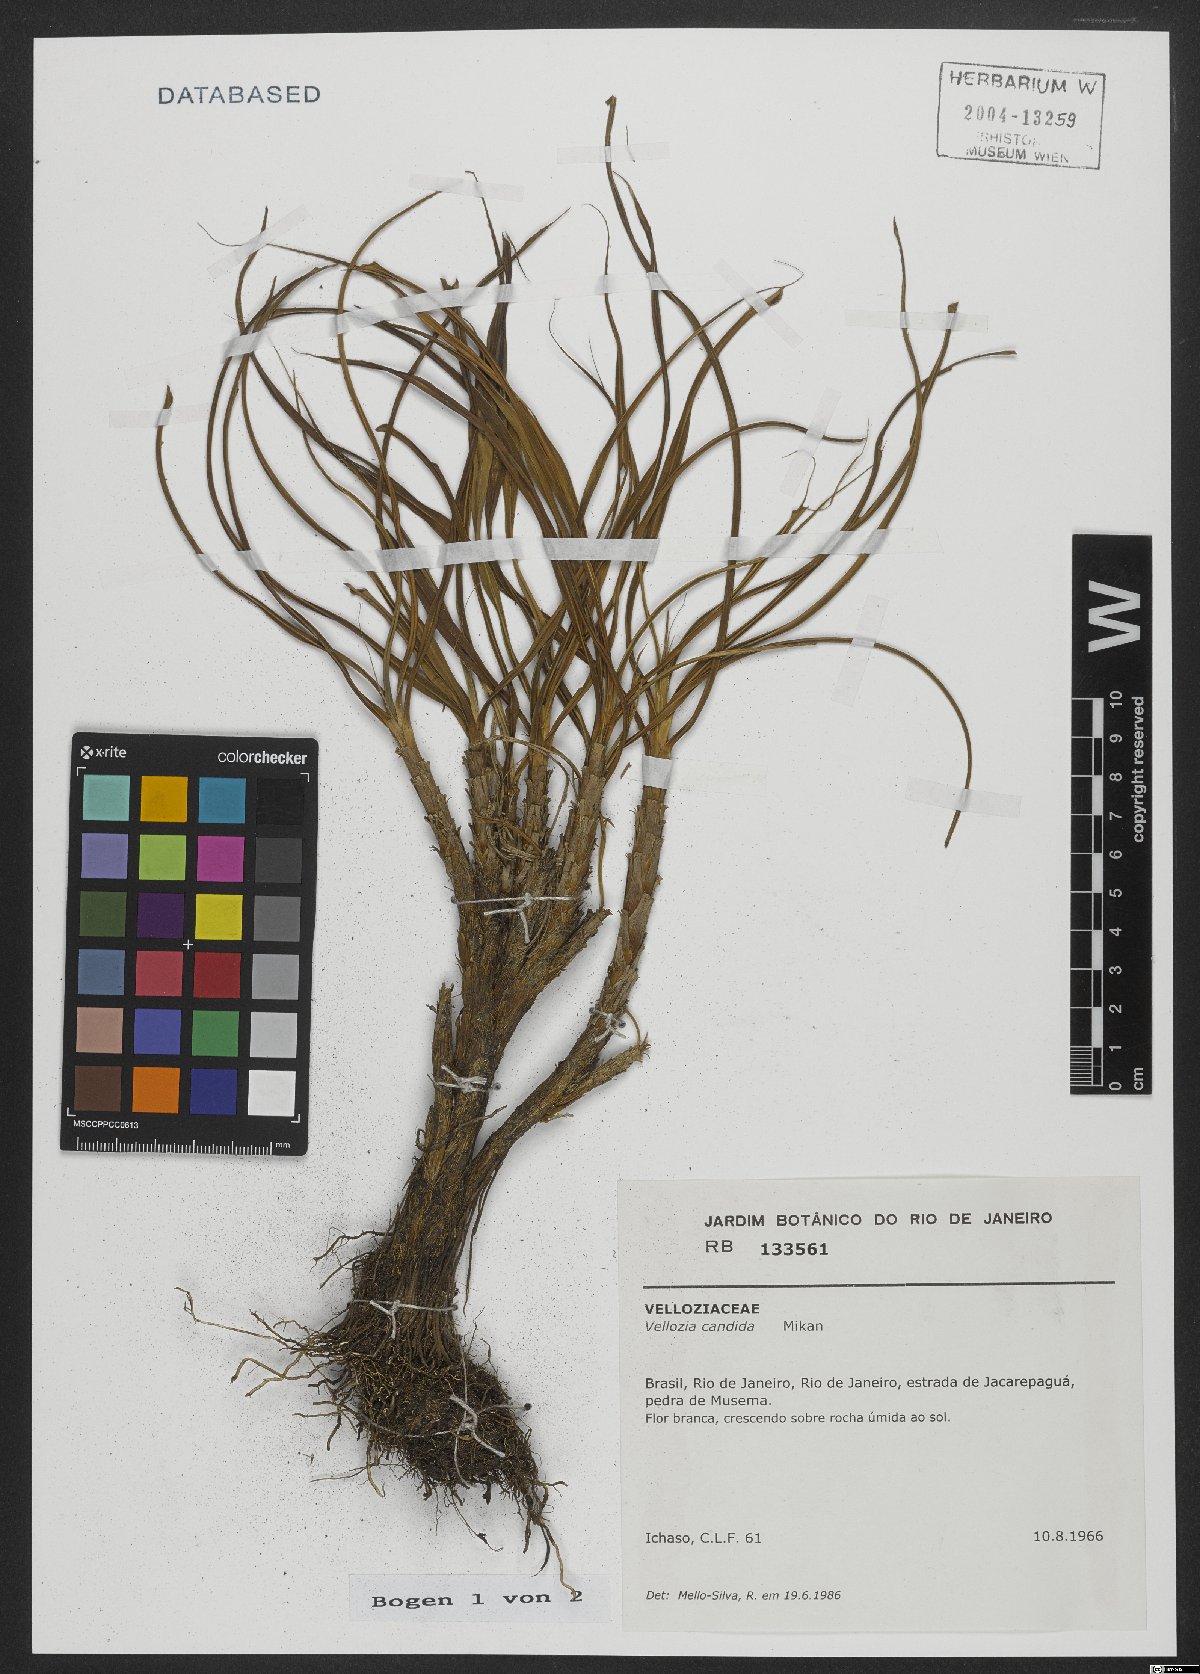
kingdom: Plantae
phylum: Tracheophyta
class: Liliopsida
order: Pandanales
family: Velloziaceae
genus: Vellozia
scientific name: Vellozia candida
